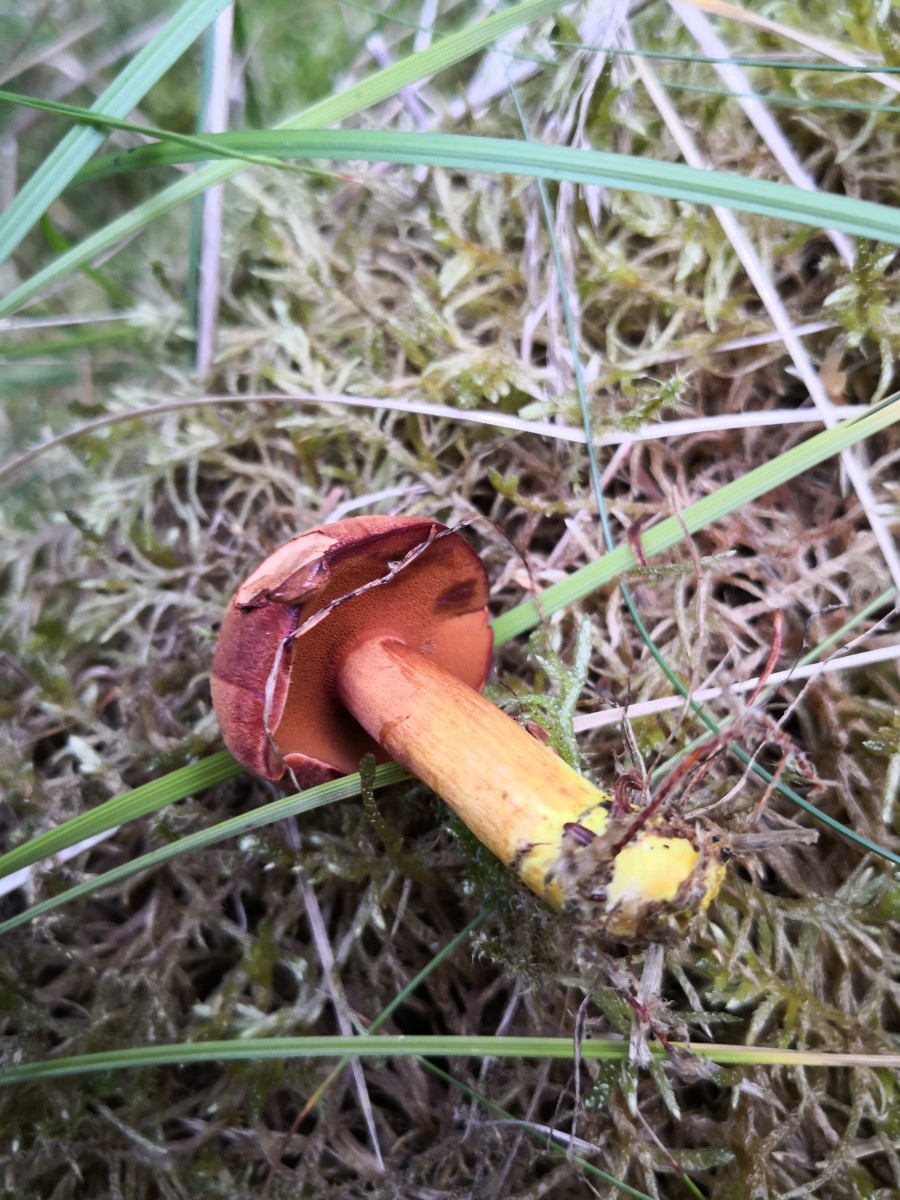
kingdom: Fungi
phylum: Basidiomycota
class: Agaricomycetes
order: Boletales
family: Boletaceae
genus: Chalciporus
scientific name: Chalciporus piperatus
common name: peberrørhat
